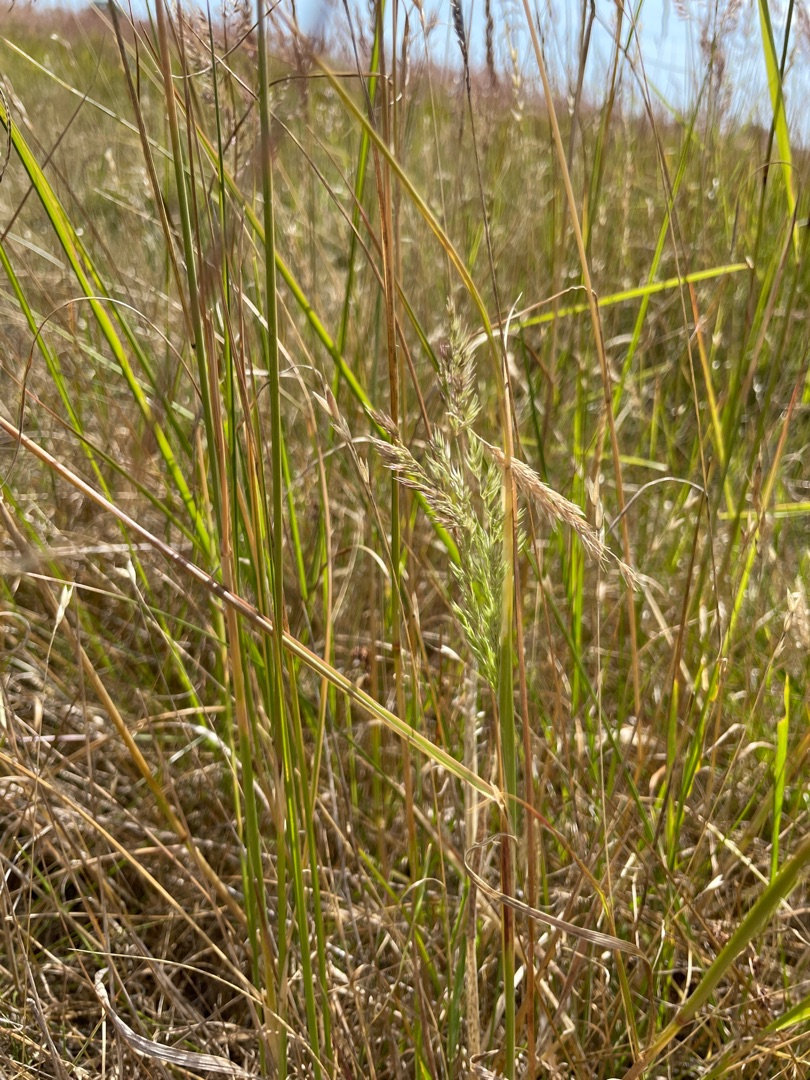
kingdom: Plantae
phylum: Tracheophyta
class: Liliopsida
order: Poales
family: Poaceae
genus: Calamagrostis
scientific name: Calamagrostis epigejos
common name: Bjerg-rørhvene
